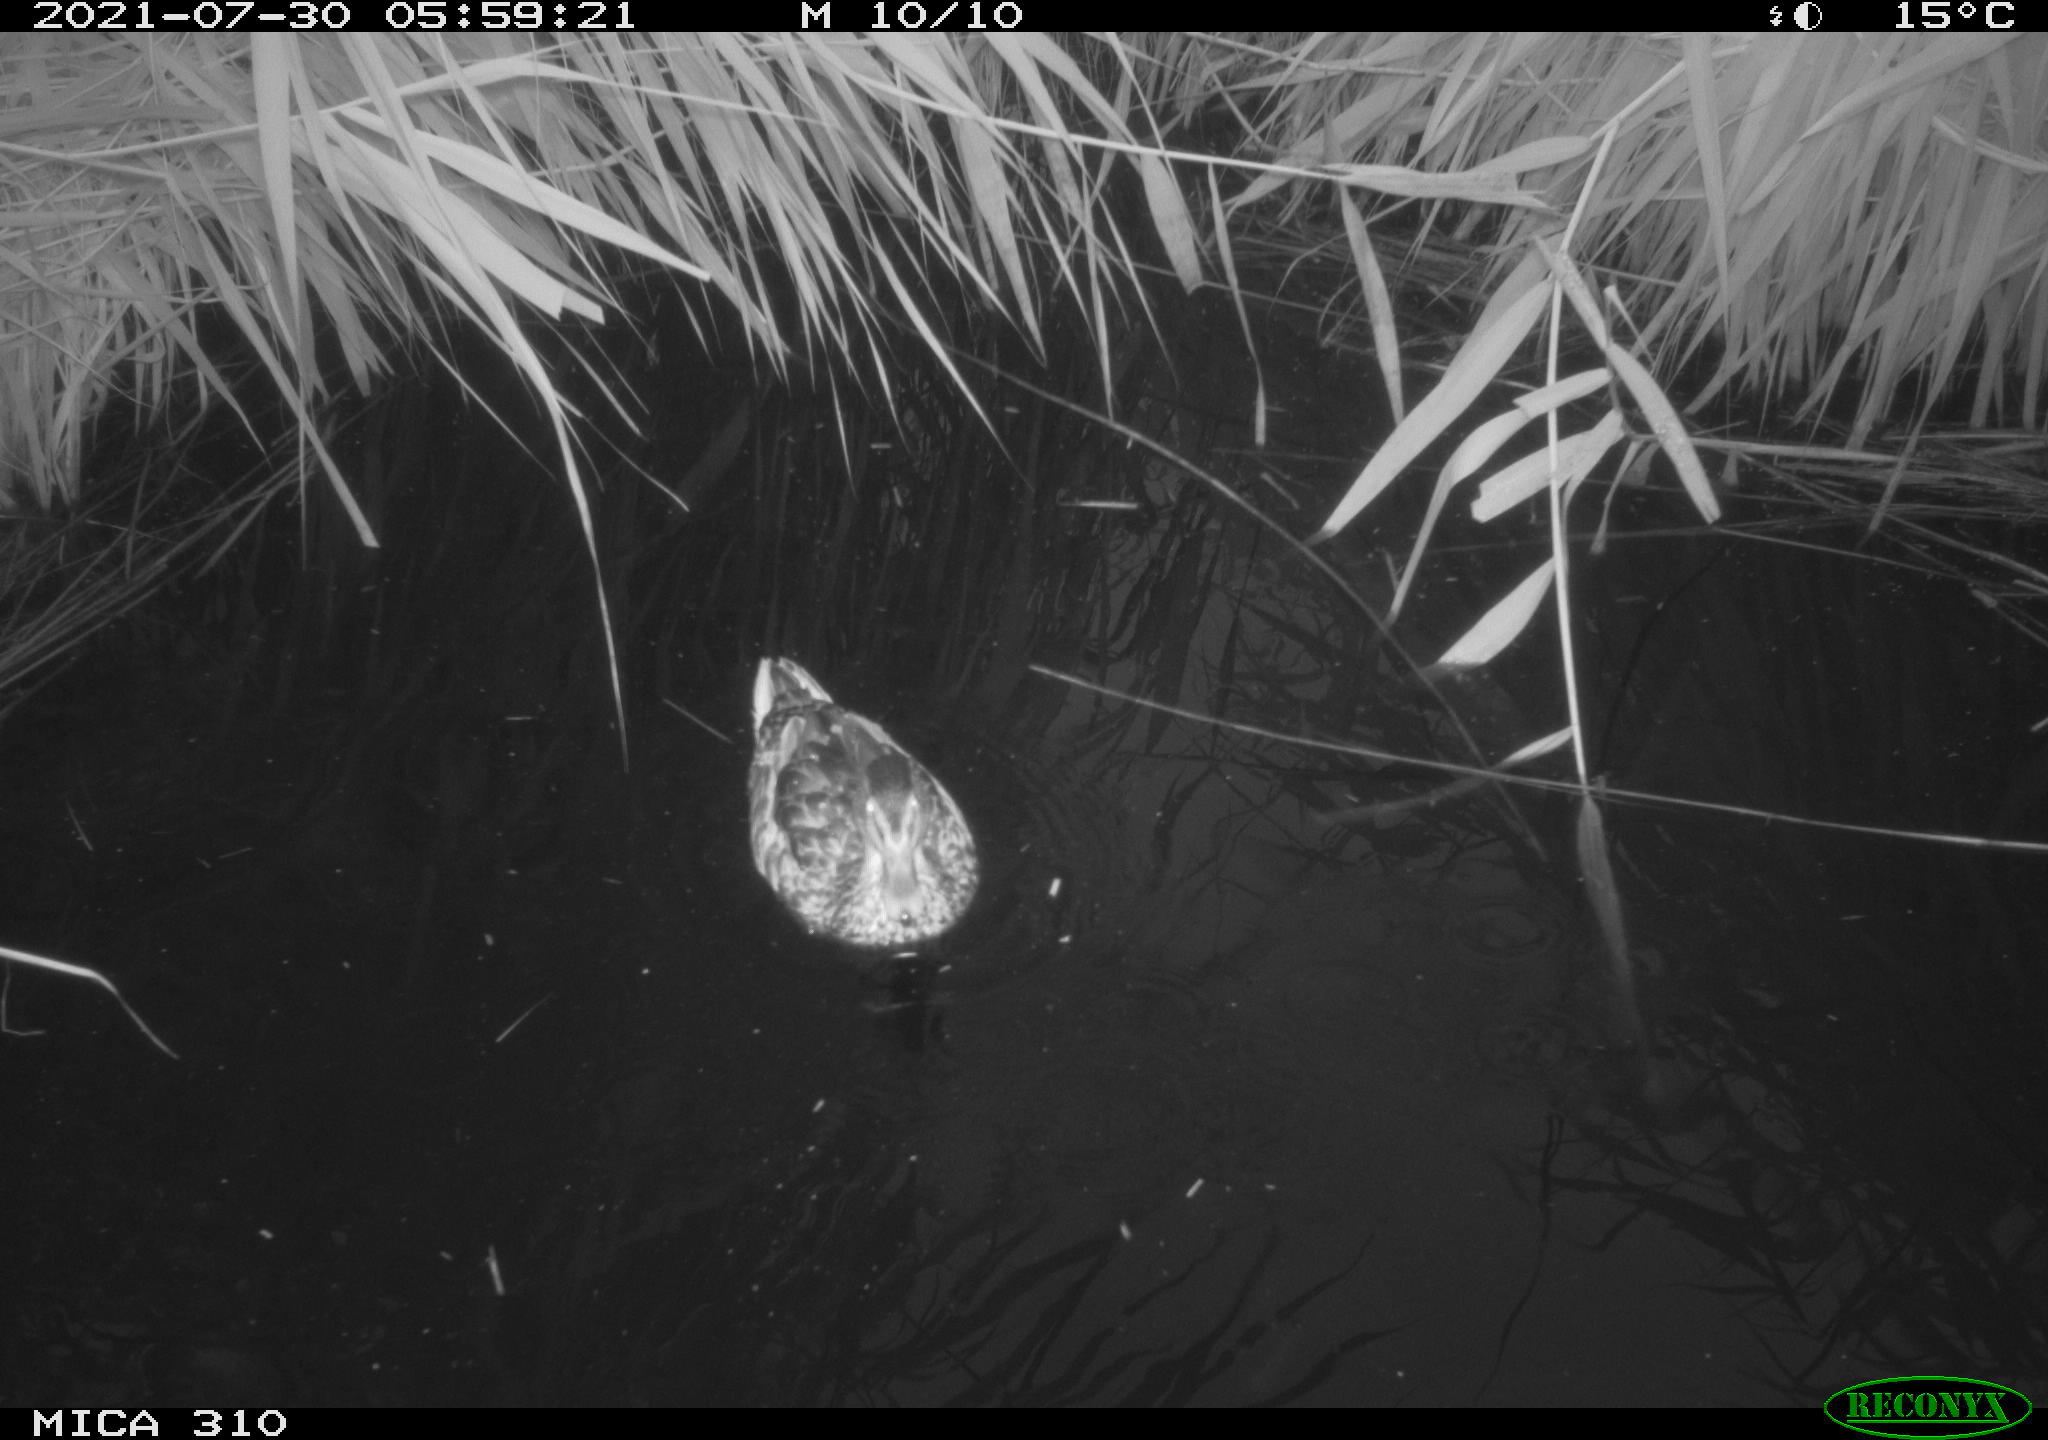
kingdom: Animalia
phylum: Chordata
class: Aves
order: Gruiformes
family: Rallidae
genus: Gallinula
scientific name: Gallinula chloropus
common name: Common moorhen
